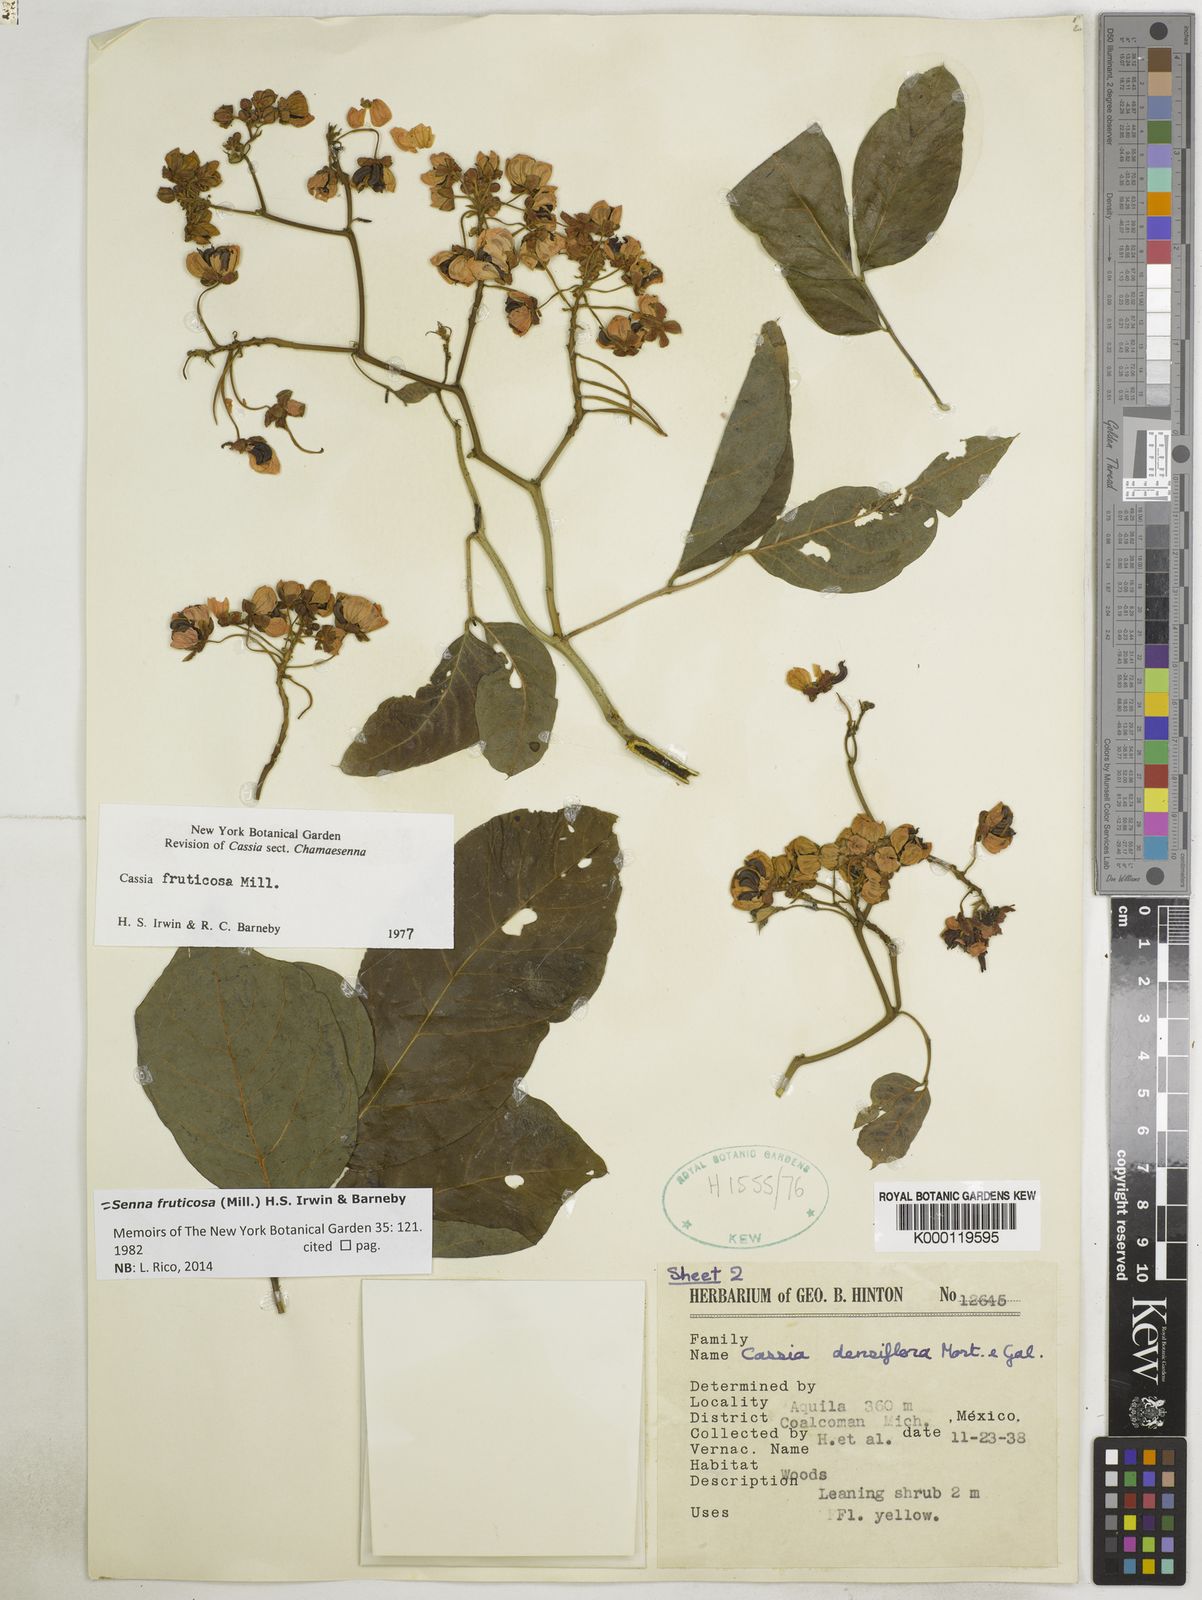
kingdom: Plantae
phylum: Tracheophyta
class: Magnoliopsida
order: Fabales
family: Fabaceae
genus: Senna
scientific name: Senna fruticosa
